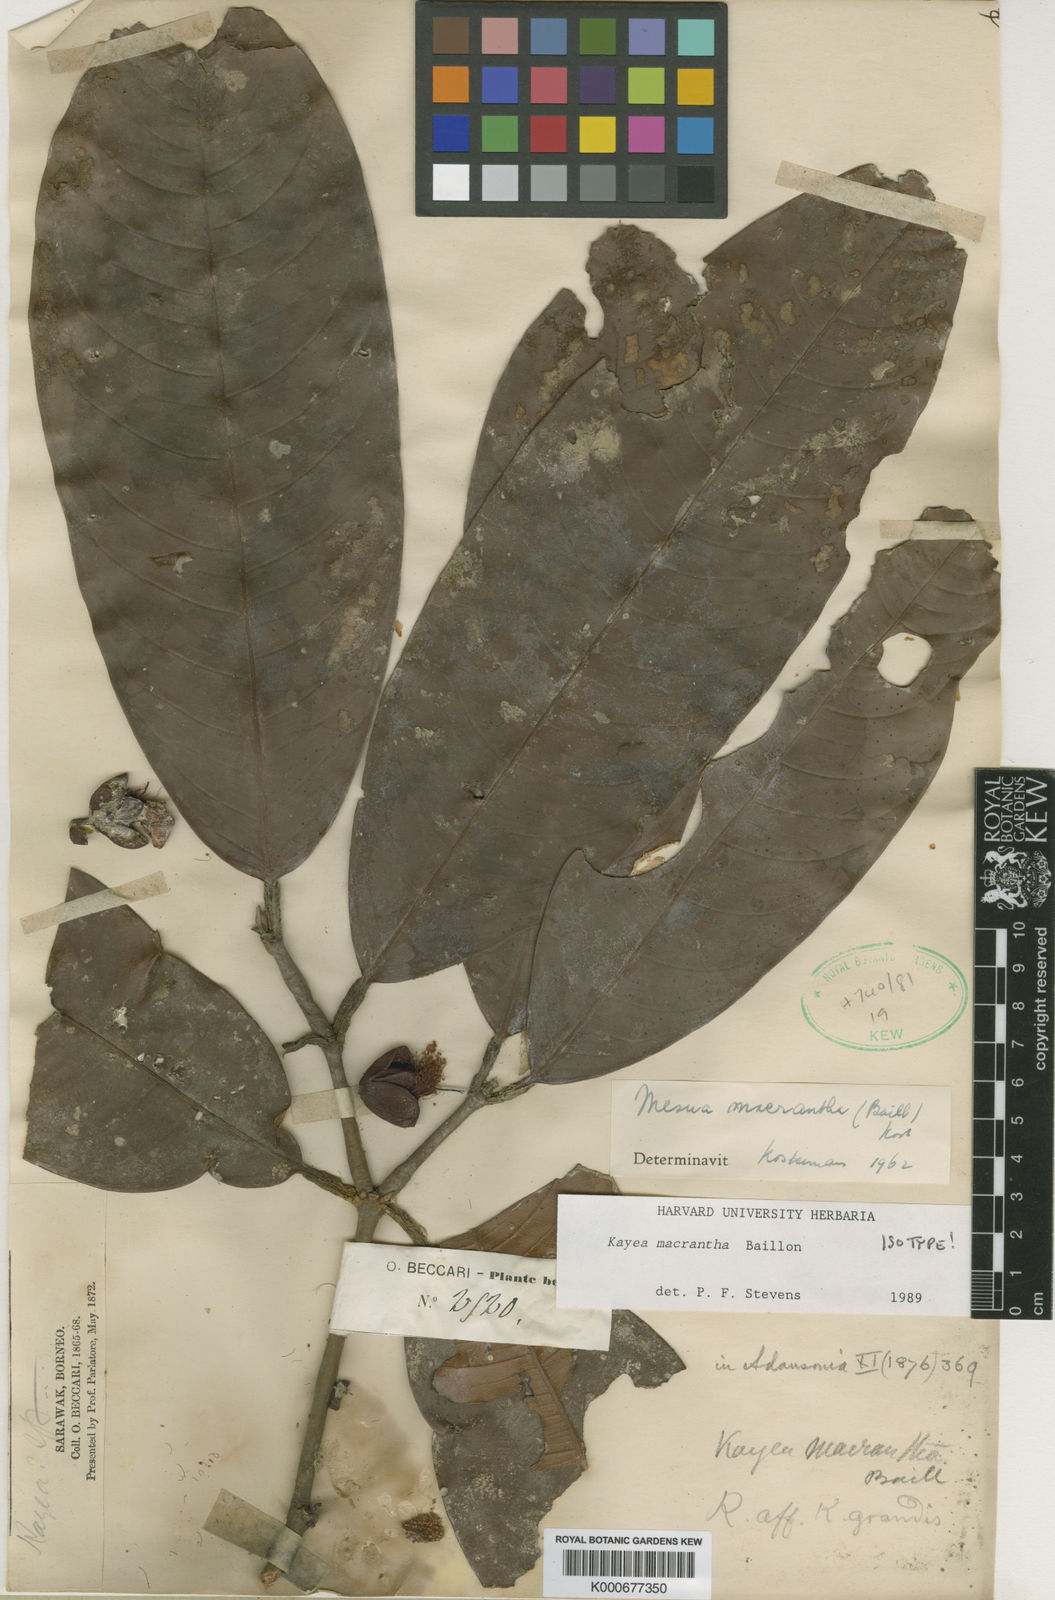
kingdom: Plantae
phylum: Tracheophyta
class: Magnoliopsida
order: Malpighiales
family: Calophyllaceae
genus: Kayea
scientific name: Kayea macrantha
